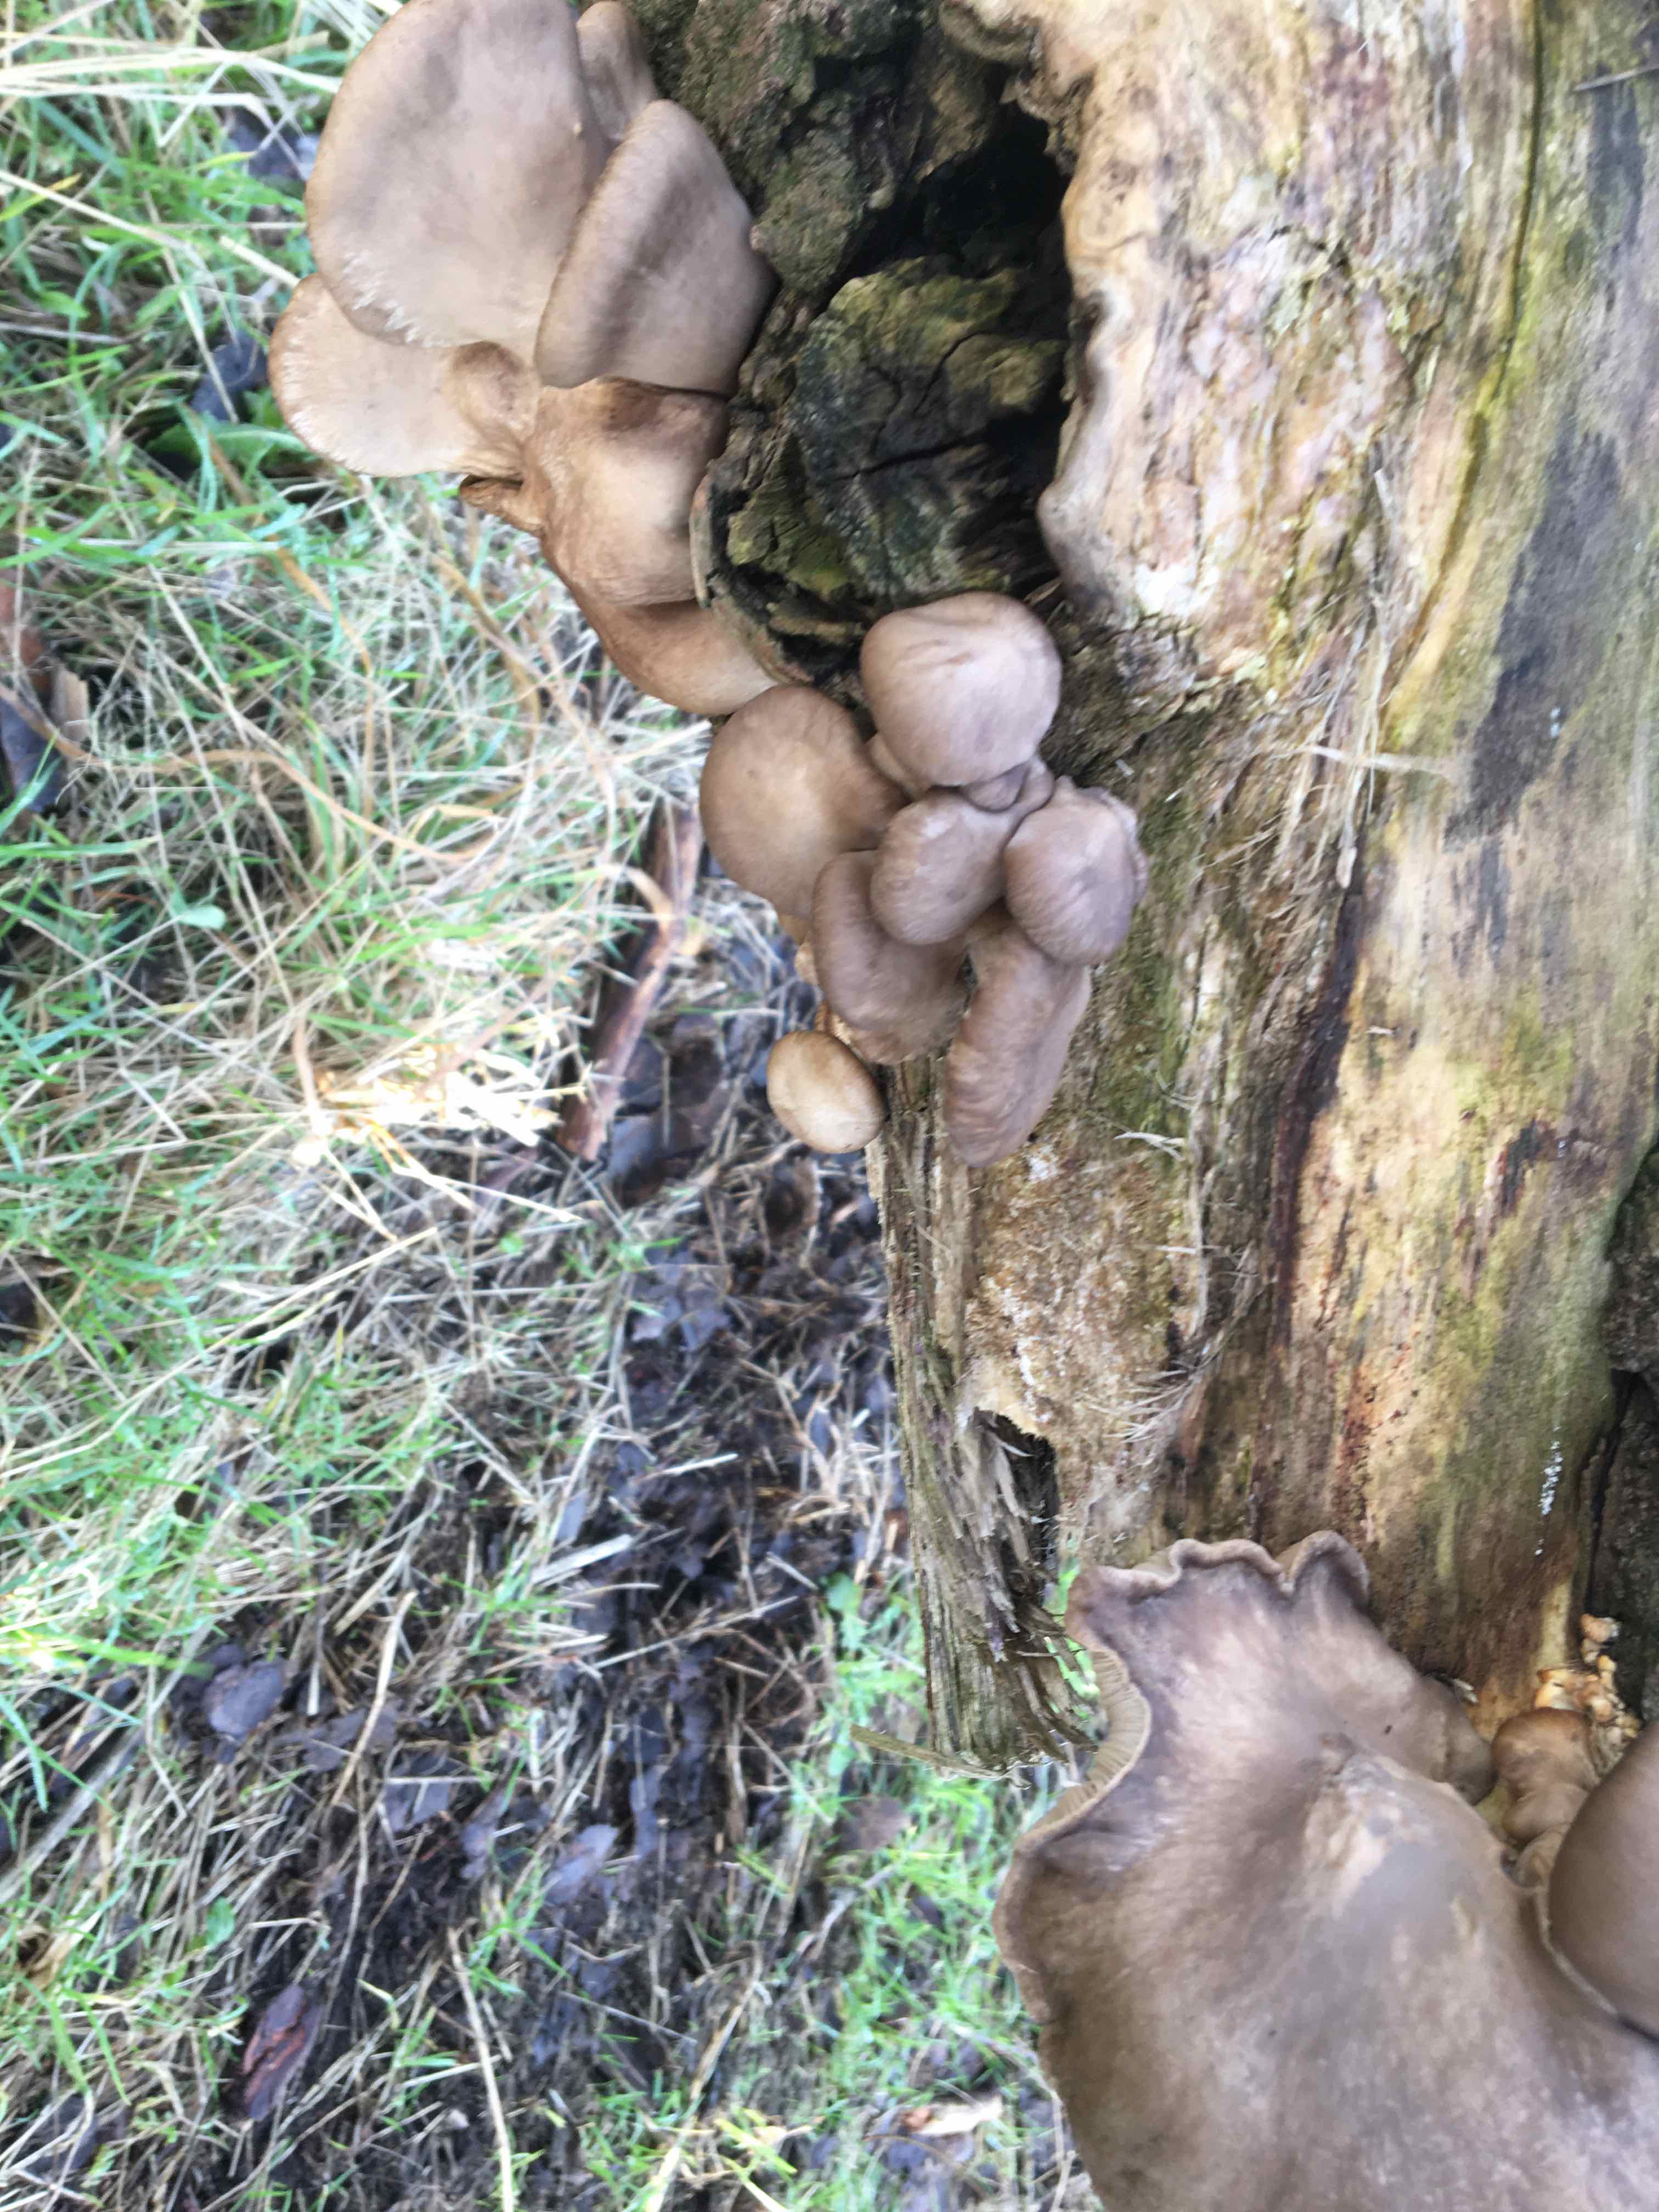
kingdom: Fungi
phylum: Basidiomycota
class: Agaricomycetes
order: Agaricales
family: Pleurotaceae
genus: Pleurotus
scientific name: Pleurotus ostreatus
